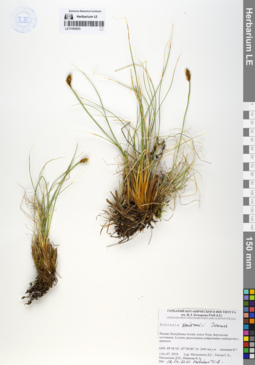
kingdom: Plantae
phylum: Tracheophyta
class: Liliopsida
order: Poales
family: Cyperaceae
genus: Carex
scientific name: Carex borealipolaris
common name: Siberian bog sedge
